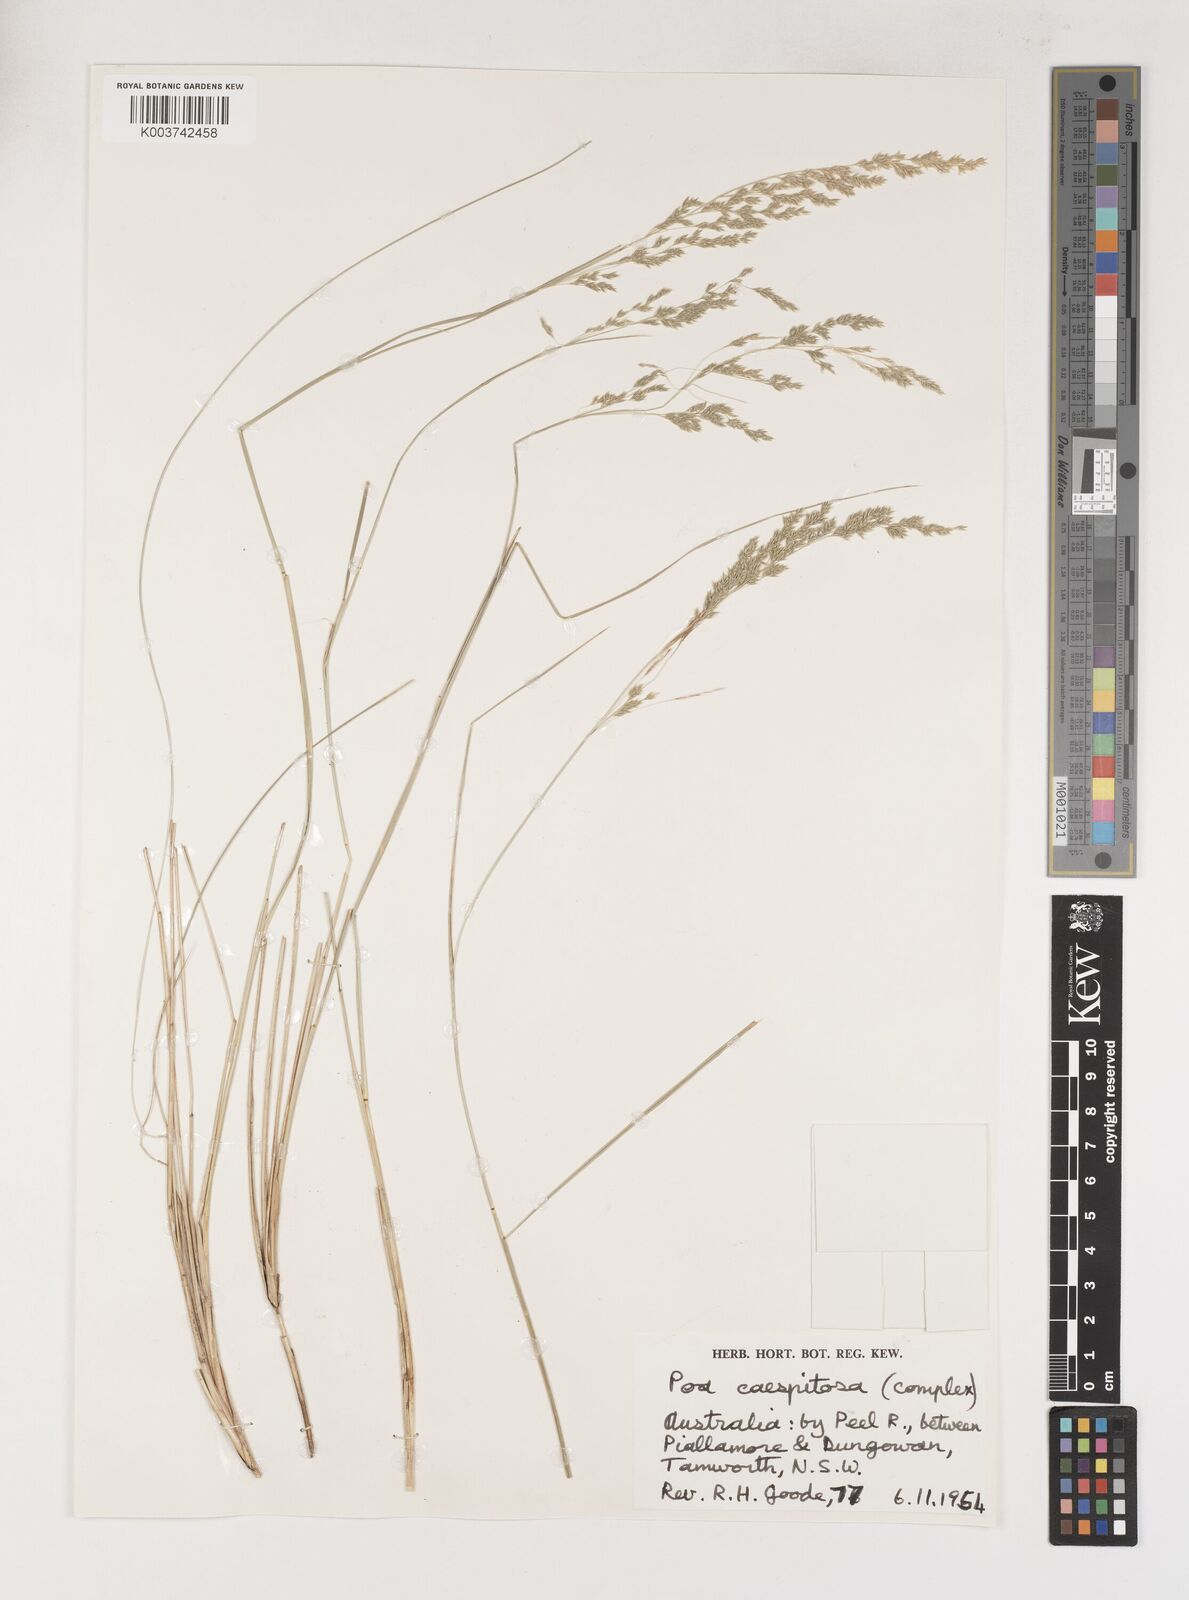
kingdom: Plantae
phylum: Tracheophyta
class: Liliopsida
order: Poales
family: Poaceae
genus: Poa
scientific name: Poa
